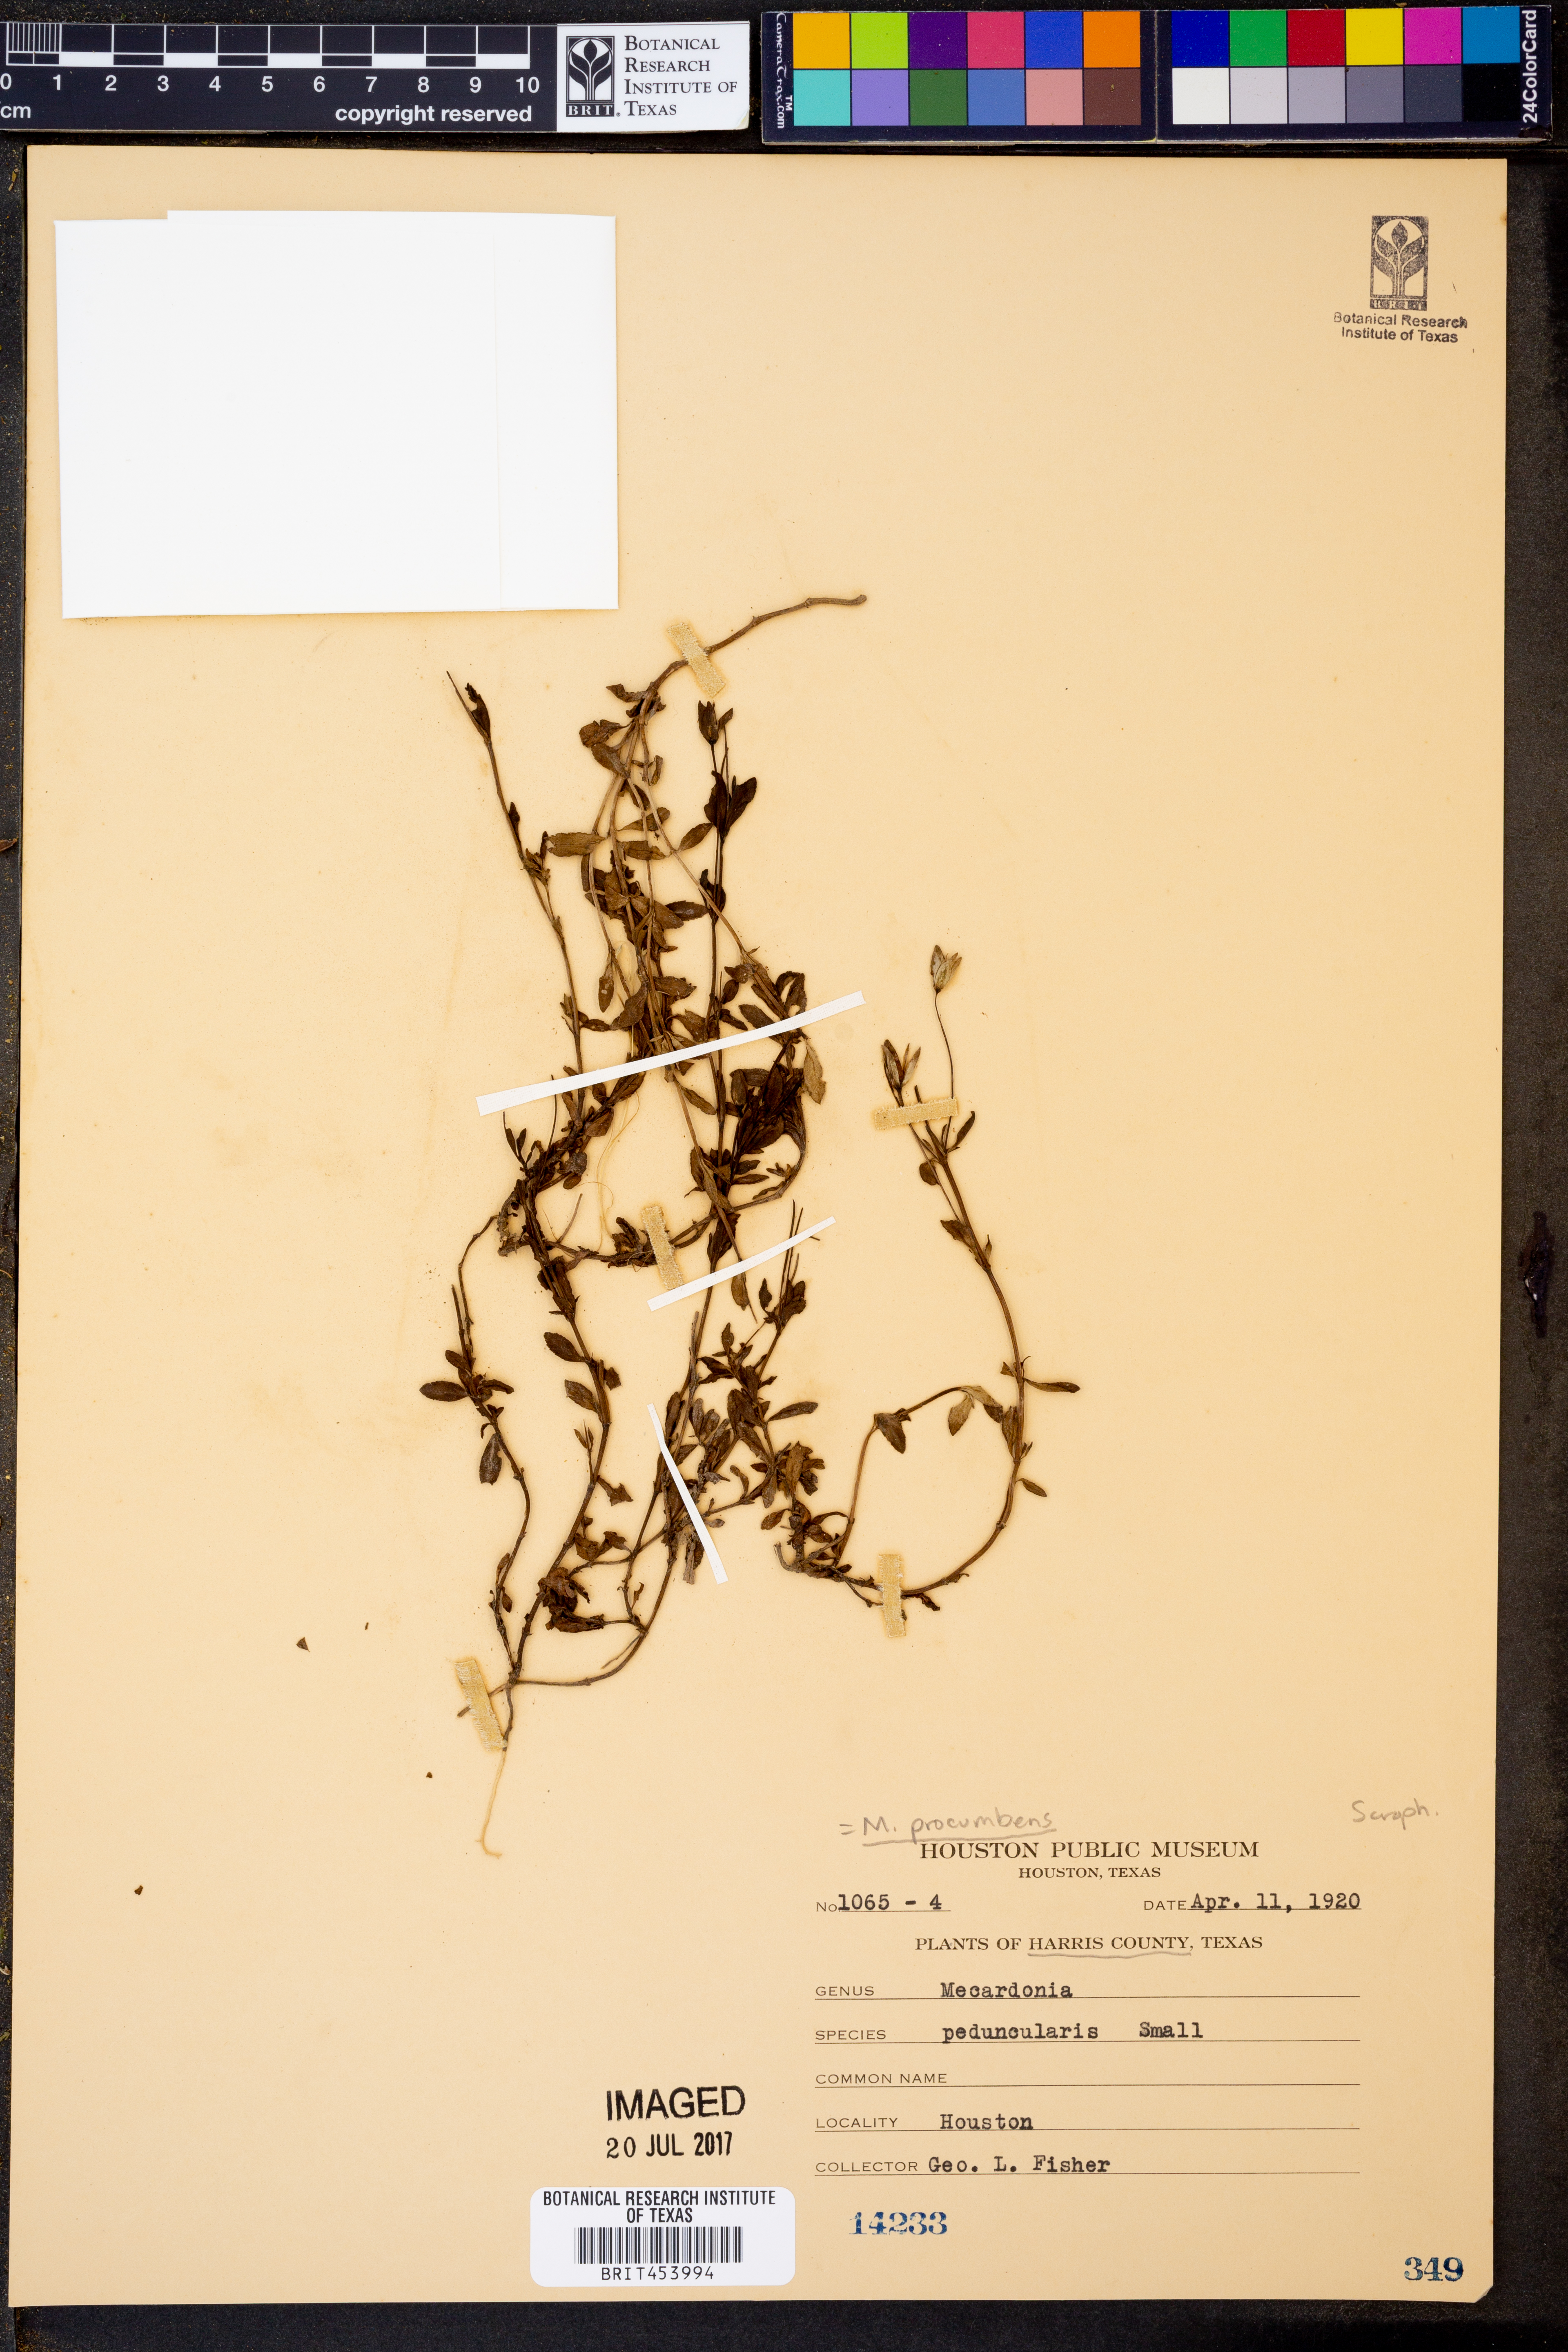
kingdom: Plantae
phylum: Tracheophyta
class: Magnoliopsida
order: Lamiales
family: Plantaginaceae
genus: Mecardonia
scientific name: Mecardonia procumbens
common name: Baby jump-up
